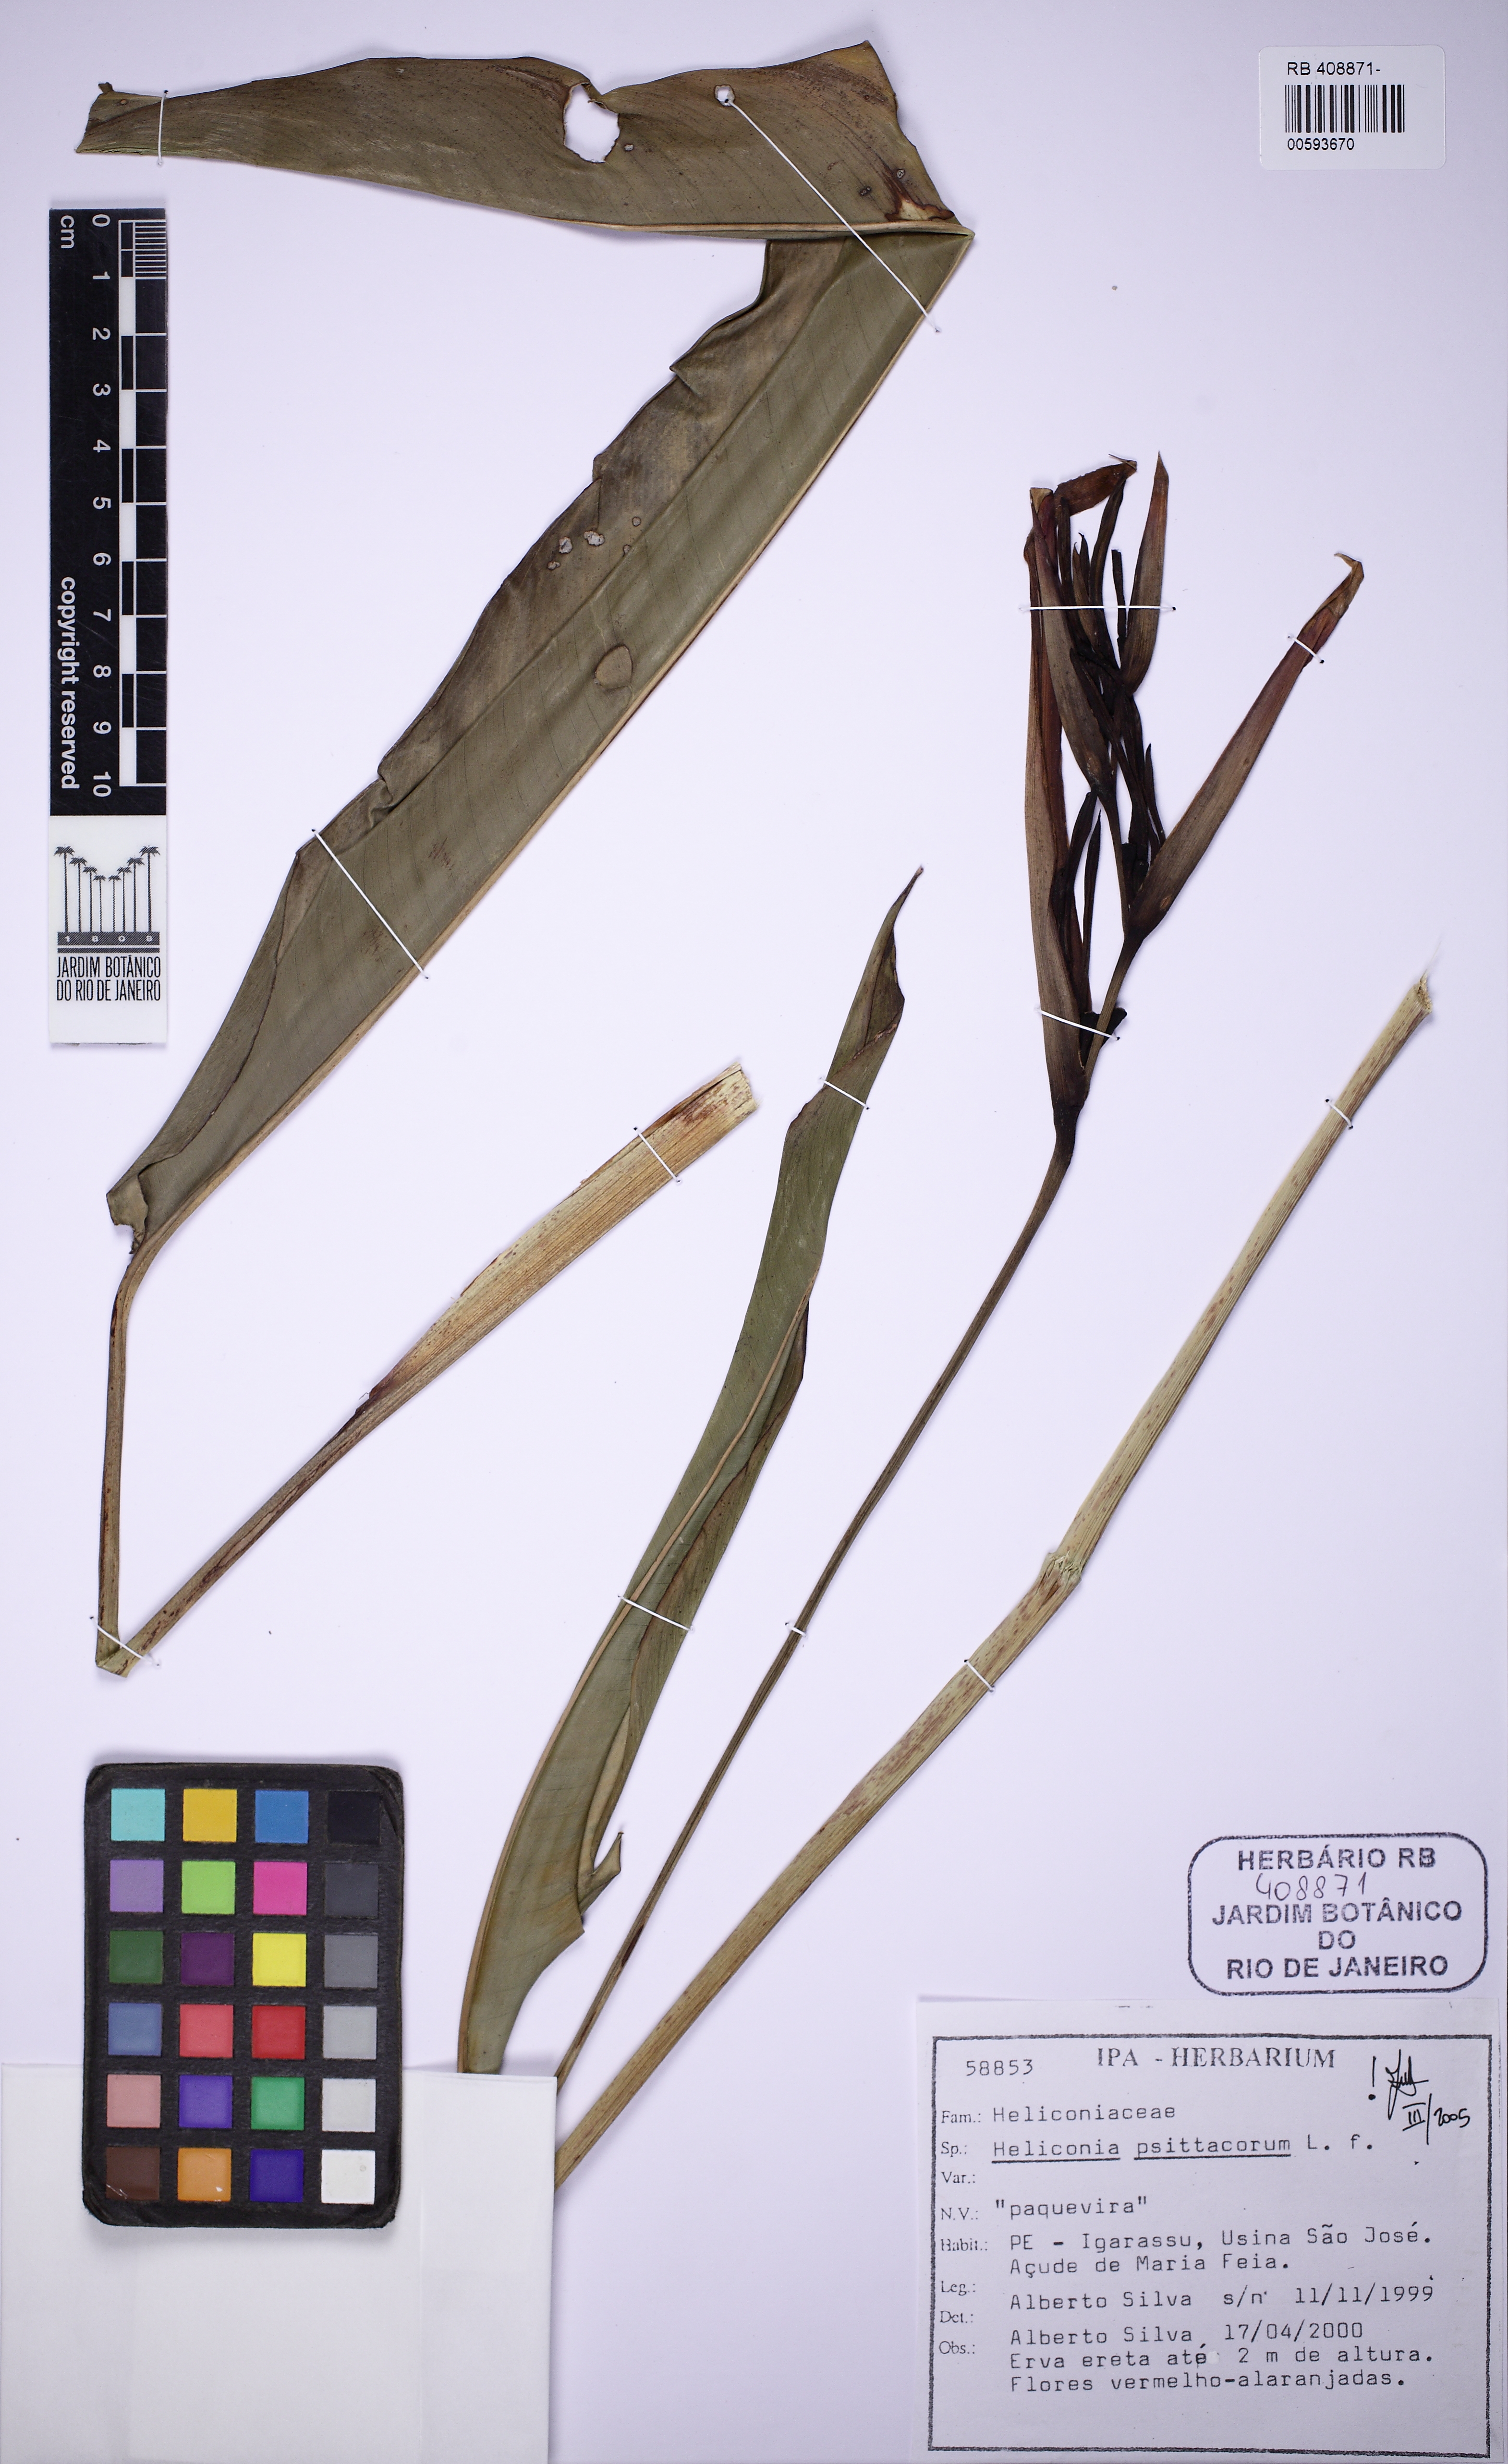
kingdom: Plantae
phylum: Tracheophyta
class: Liliopsida
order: Zingiberales
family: Heliconiaceae
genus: Heliconia
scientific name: Heliconia psittacorum
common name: Parrot's-flower
